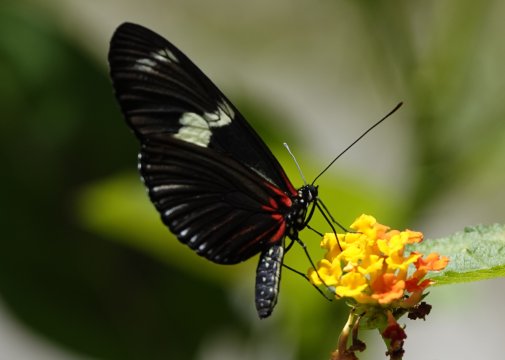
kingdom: Animalia
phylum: Arthropoda
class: Insecta
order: Lepidoptera
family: Nymphalidae
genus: Heliconius
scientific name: Heliconius sara
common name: Sara Longwing
